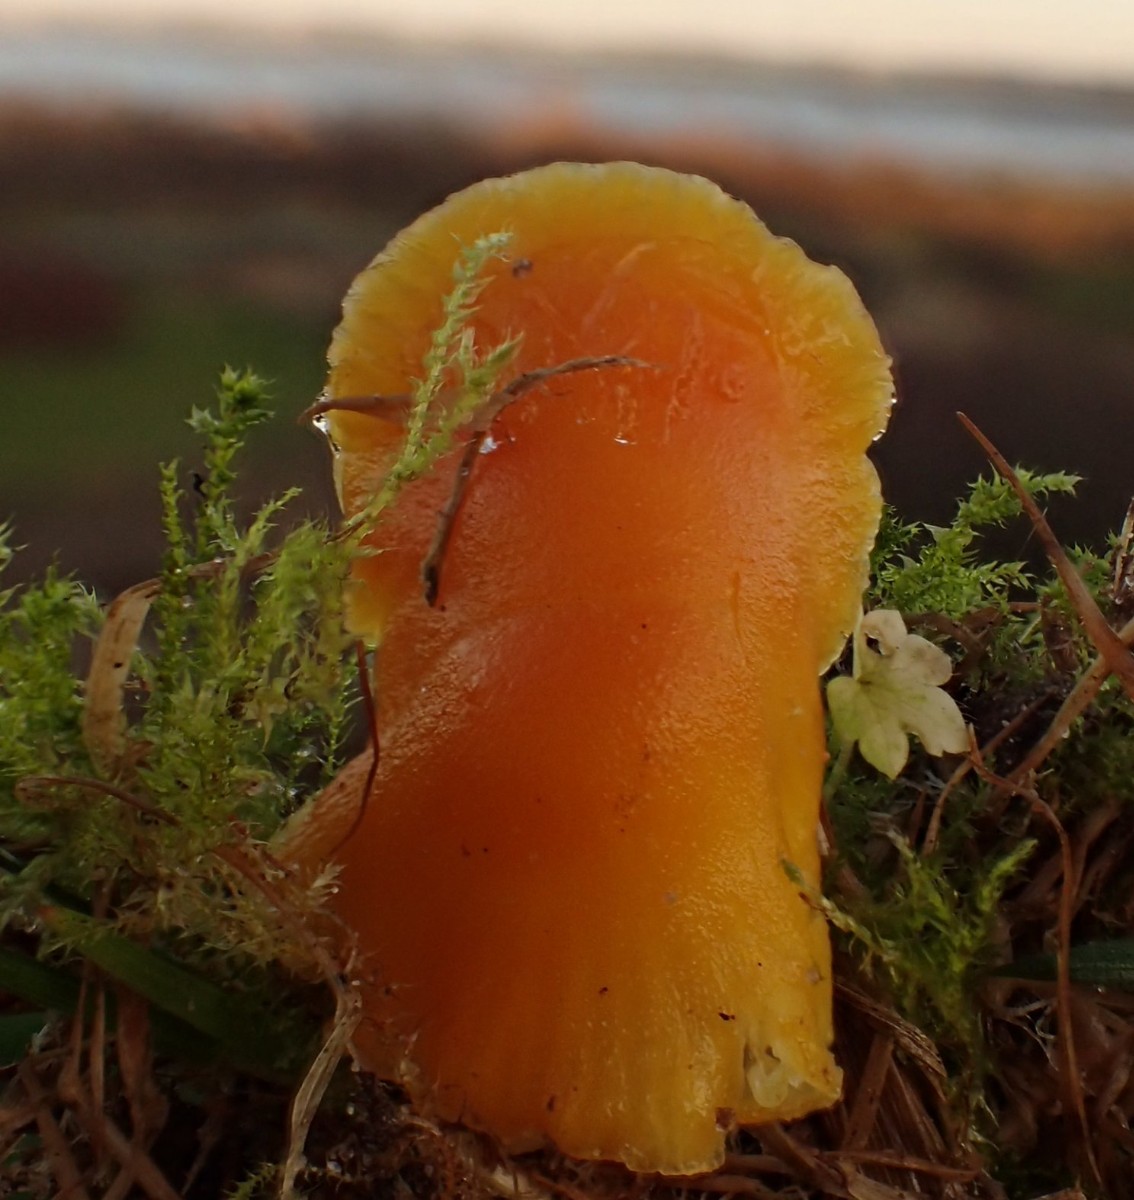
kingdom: Fungi
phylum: Basidiomycota
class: Agaricomycetes
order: Agaricales
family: Hygrophoraceae
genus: Hygrocybe
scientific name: Hygrocybe ceracea
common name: voksgul vokshat
